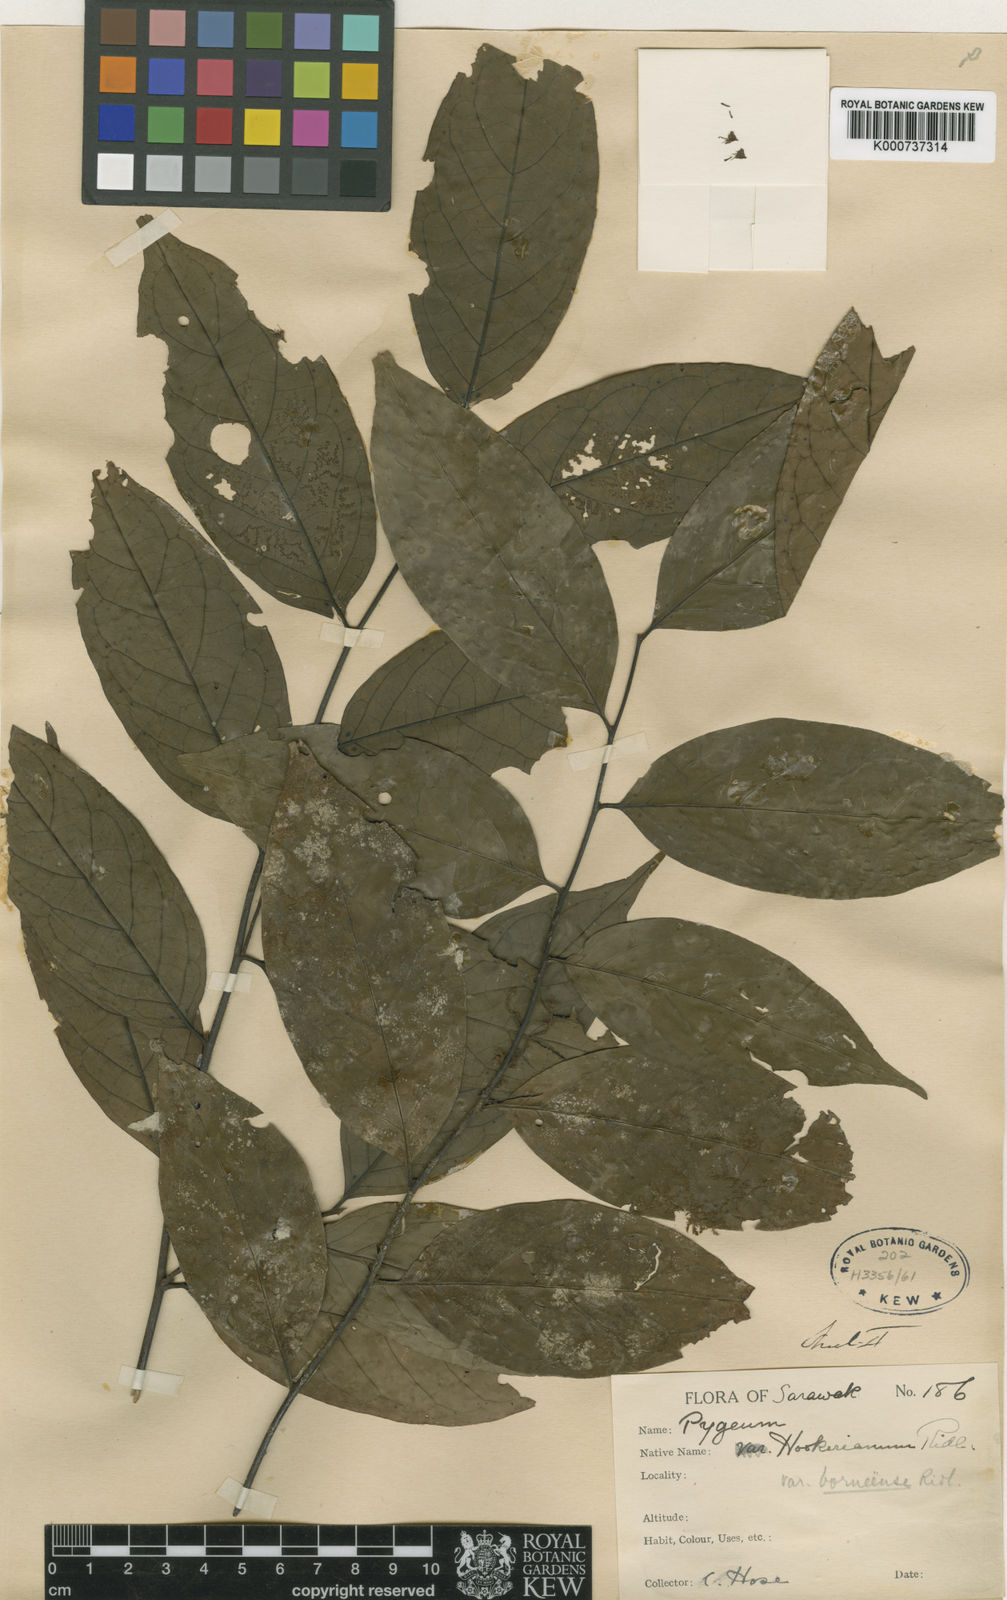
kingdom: Plantae
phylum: Tracheophyta
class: Magnoliopsida
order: Rosales
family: Rosaceae
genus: Prunus
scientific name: Prunus
